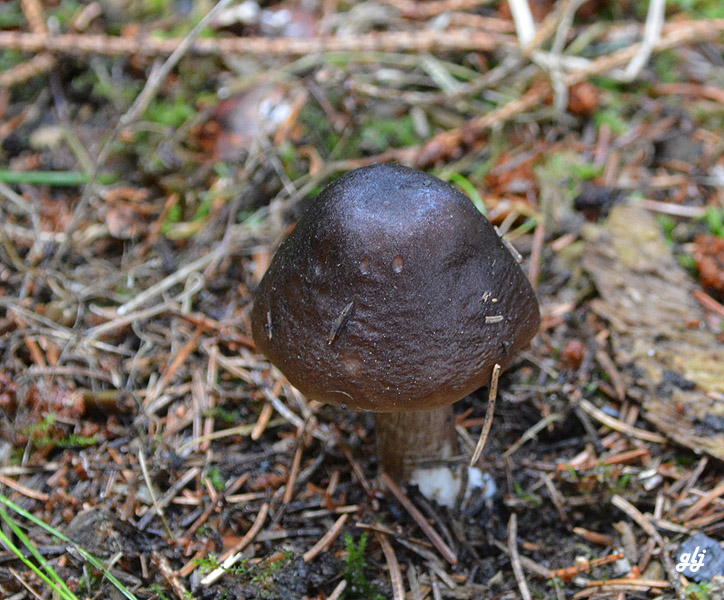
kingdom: Fungi
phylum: Basidiomycota
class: Agaricomycetes
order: Agaricales
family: Pluteaceae
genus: Pluteus
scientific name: Pluteus cervinus
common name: sodfarvet skærmhat
